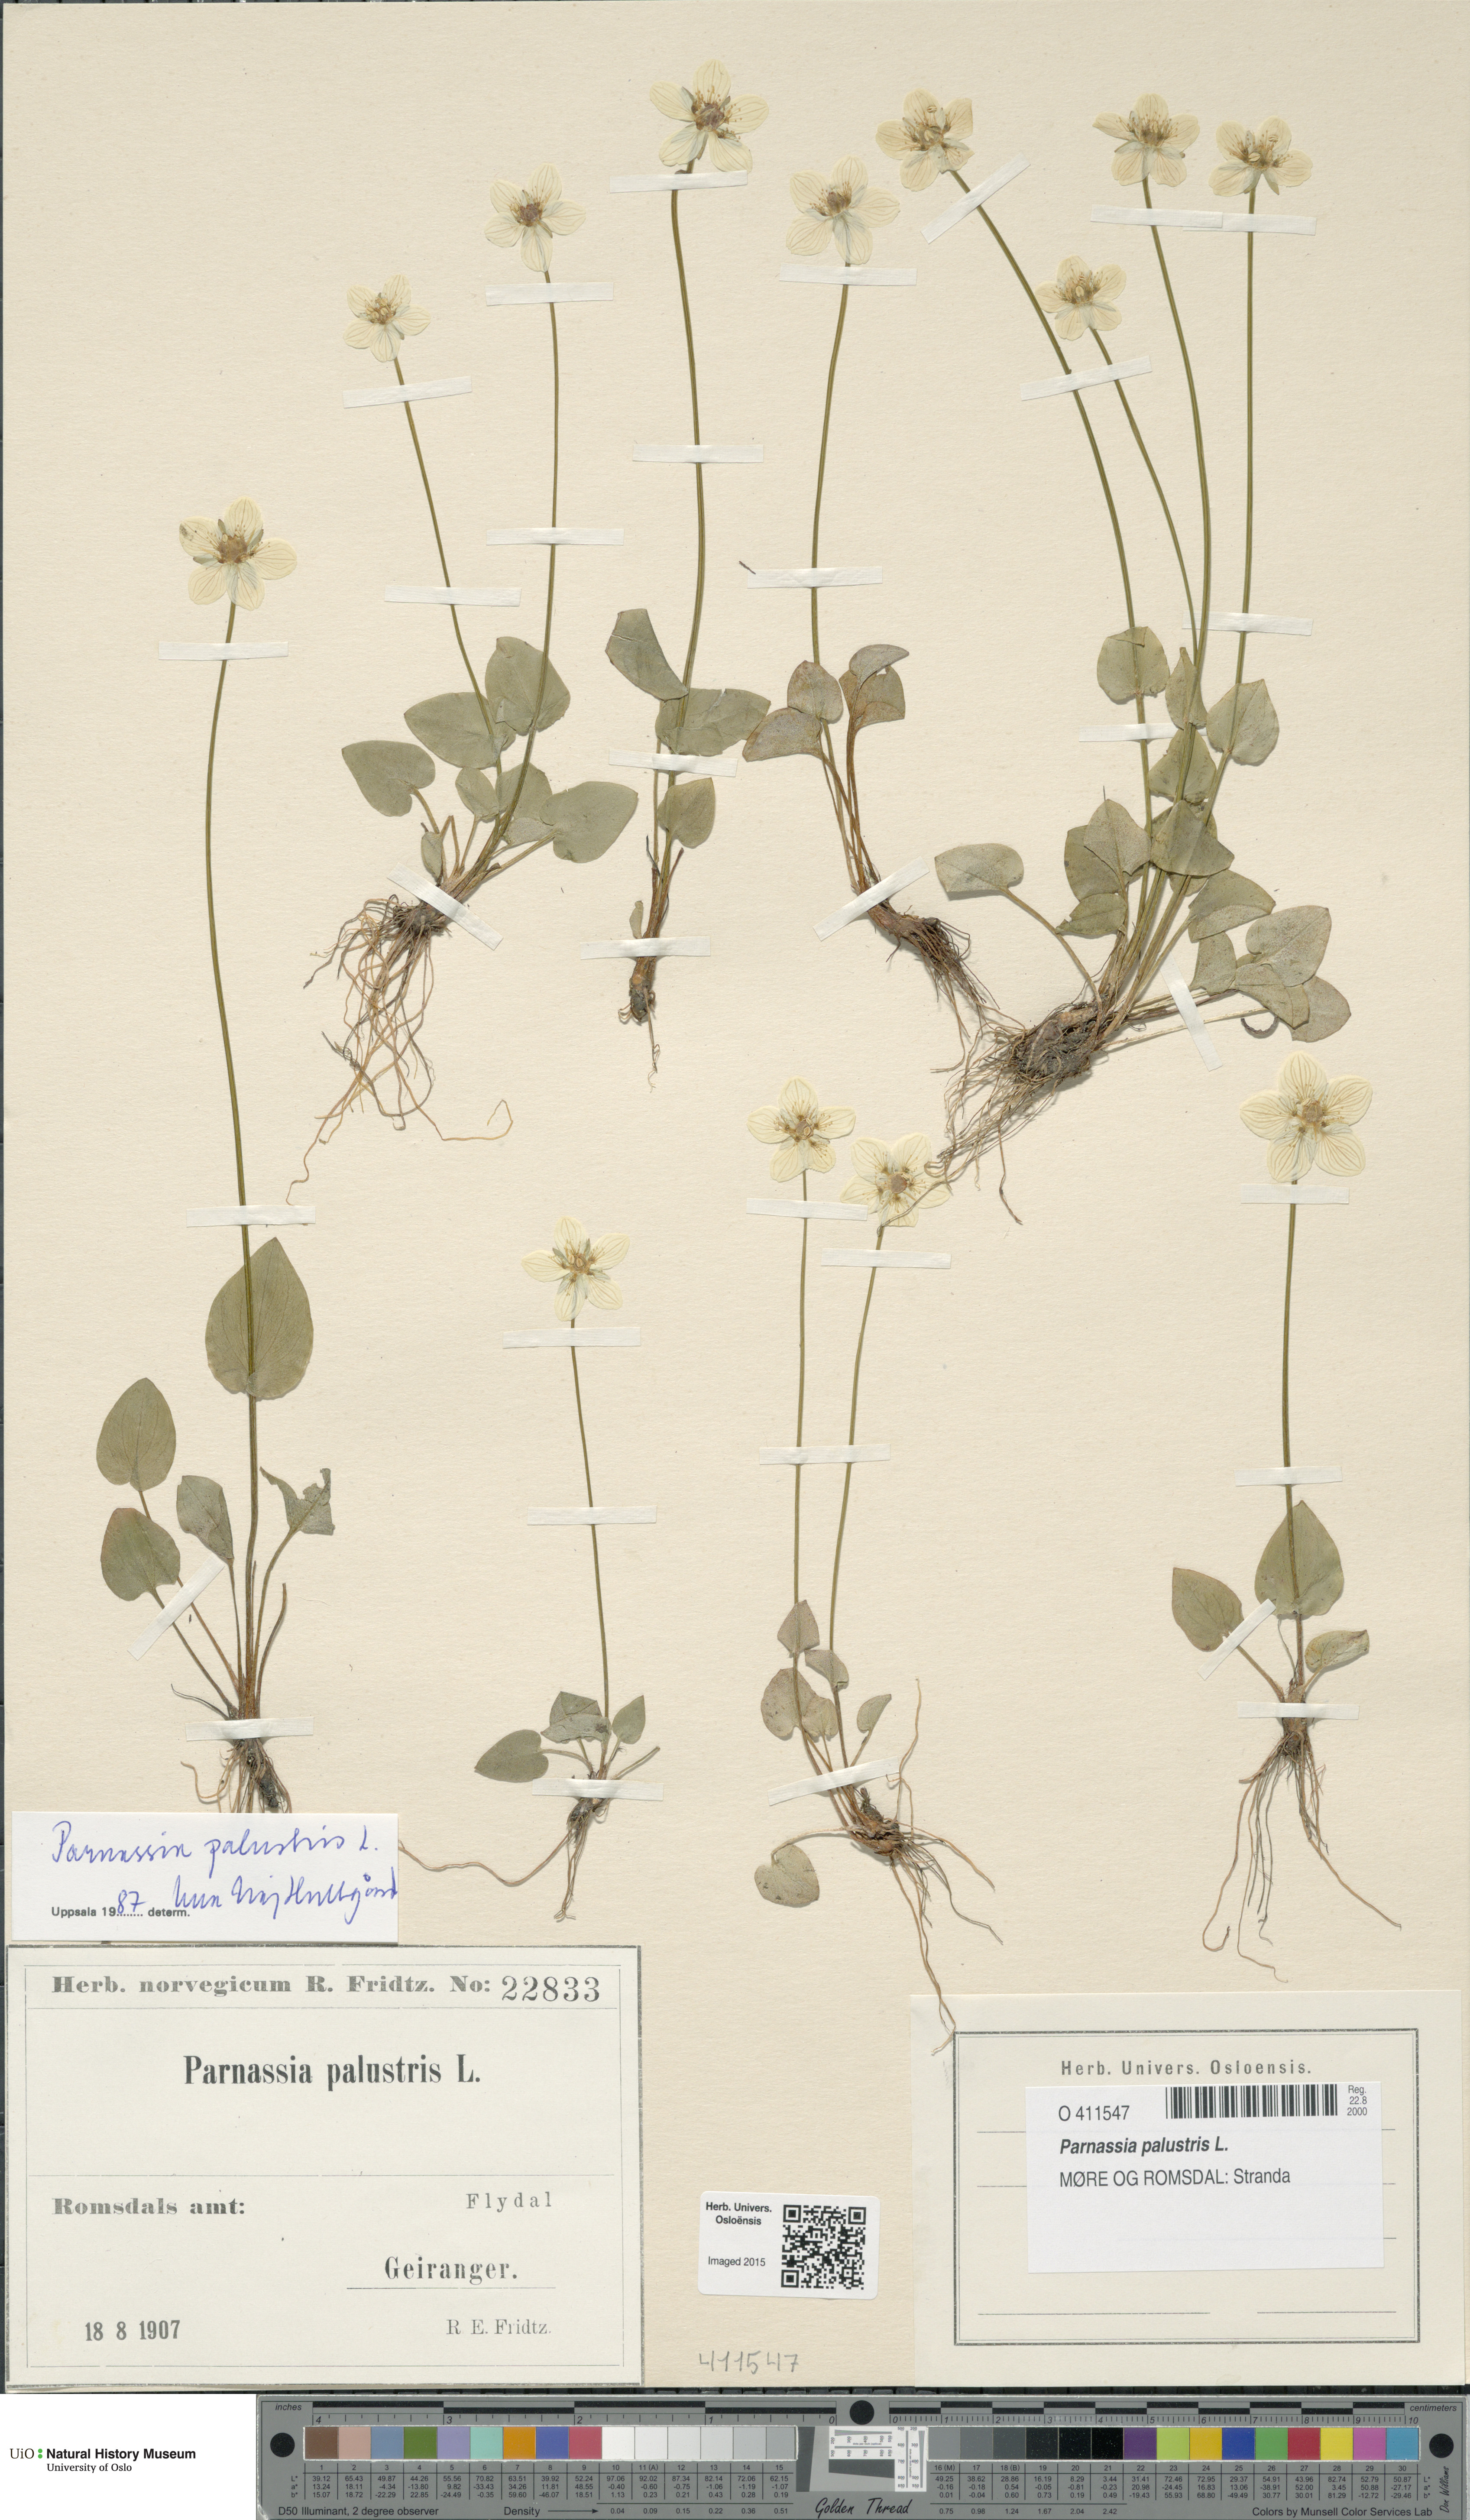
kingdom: Plantae
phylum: Tracheophyta
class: Magnoliopsida
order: Celastrales
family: Parnassiaceae
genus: Parnassia
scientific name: Parnassia palustris
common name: Grass-of-parnassus
